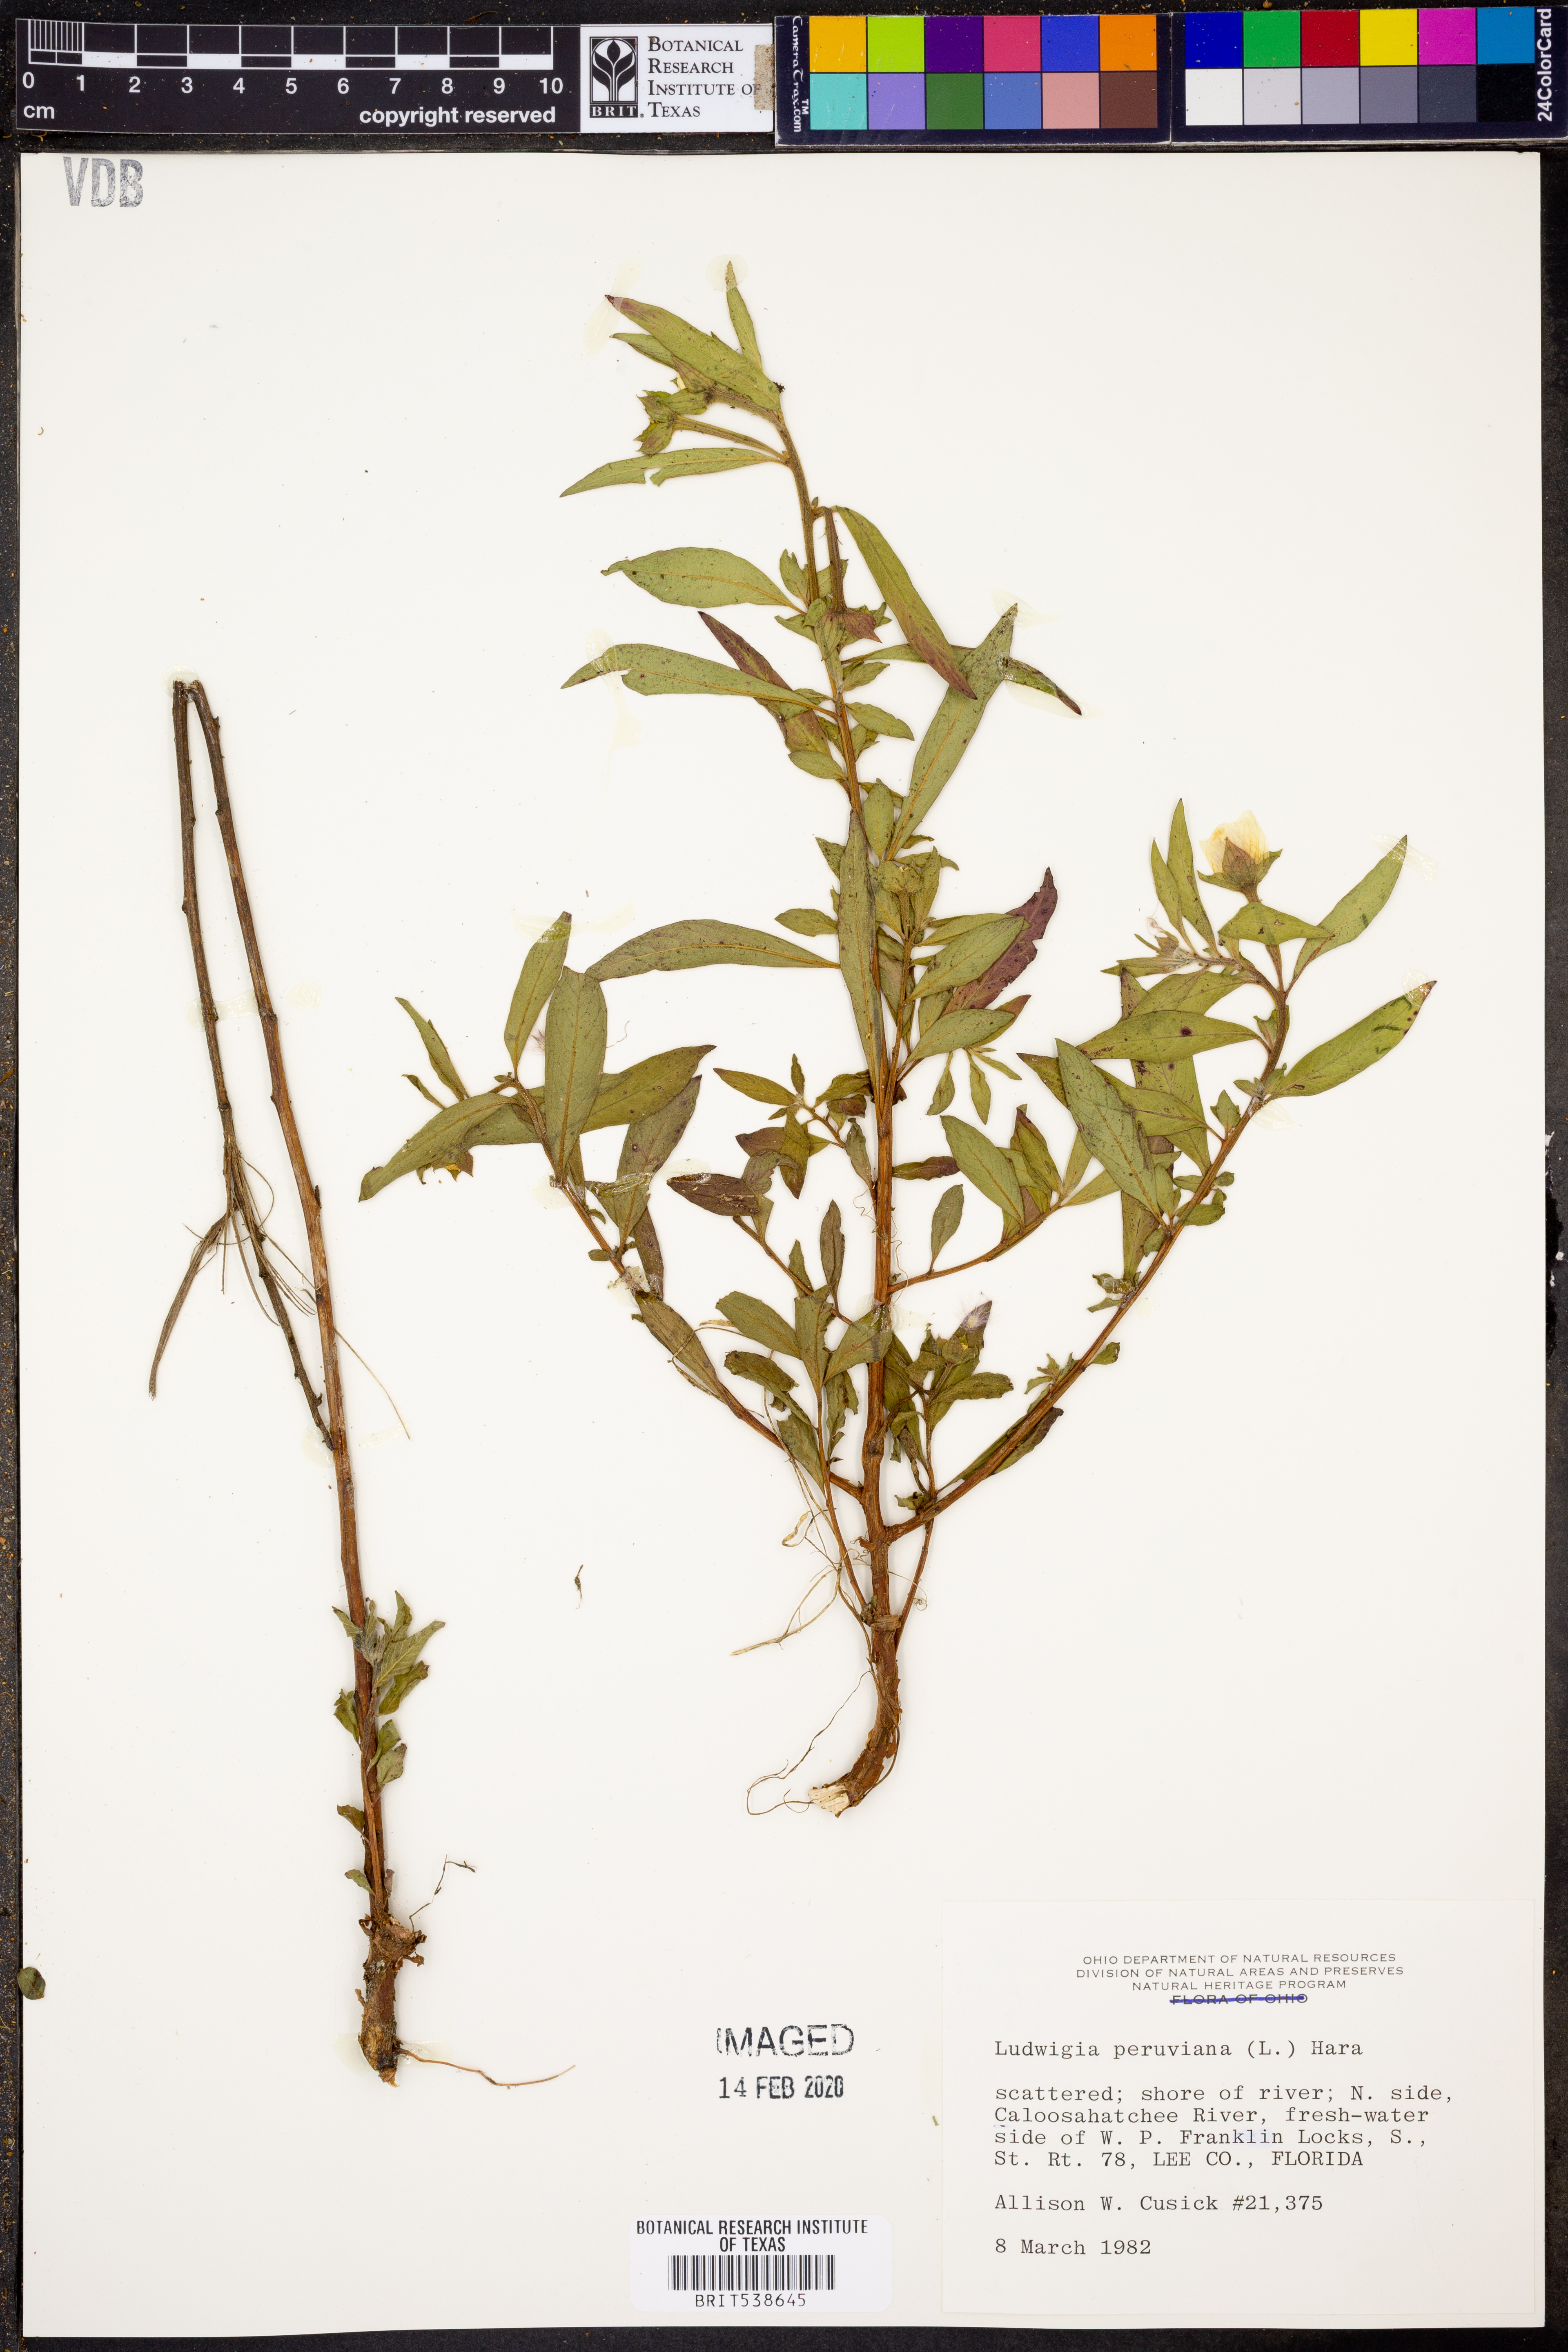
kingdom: Plantae
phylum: Tracheophyta
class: Magnoliopsida
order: Myrtales
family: Onagraceae
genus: Ludwigia
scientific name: Ludwigia peruviana
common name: Peruvian primrose-willow
